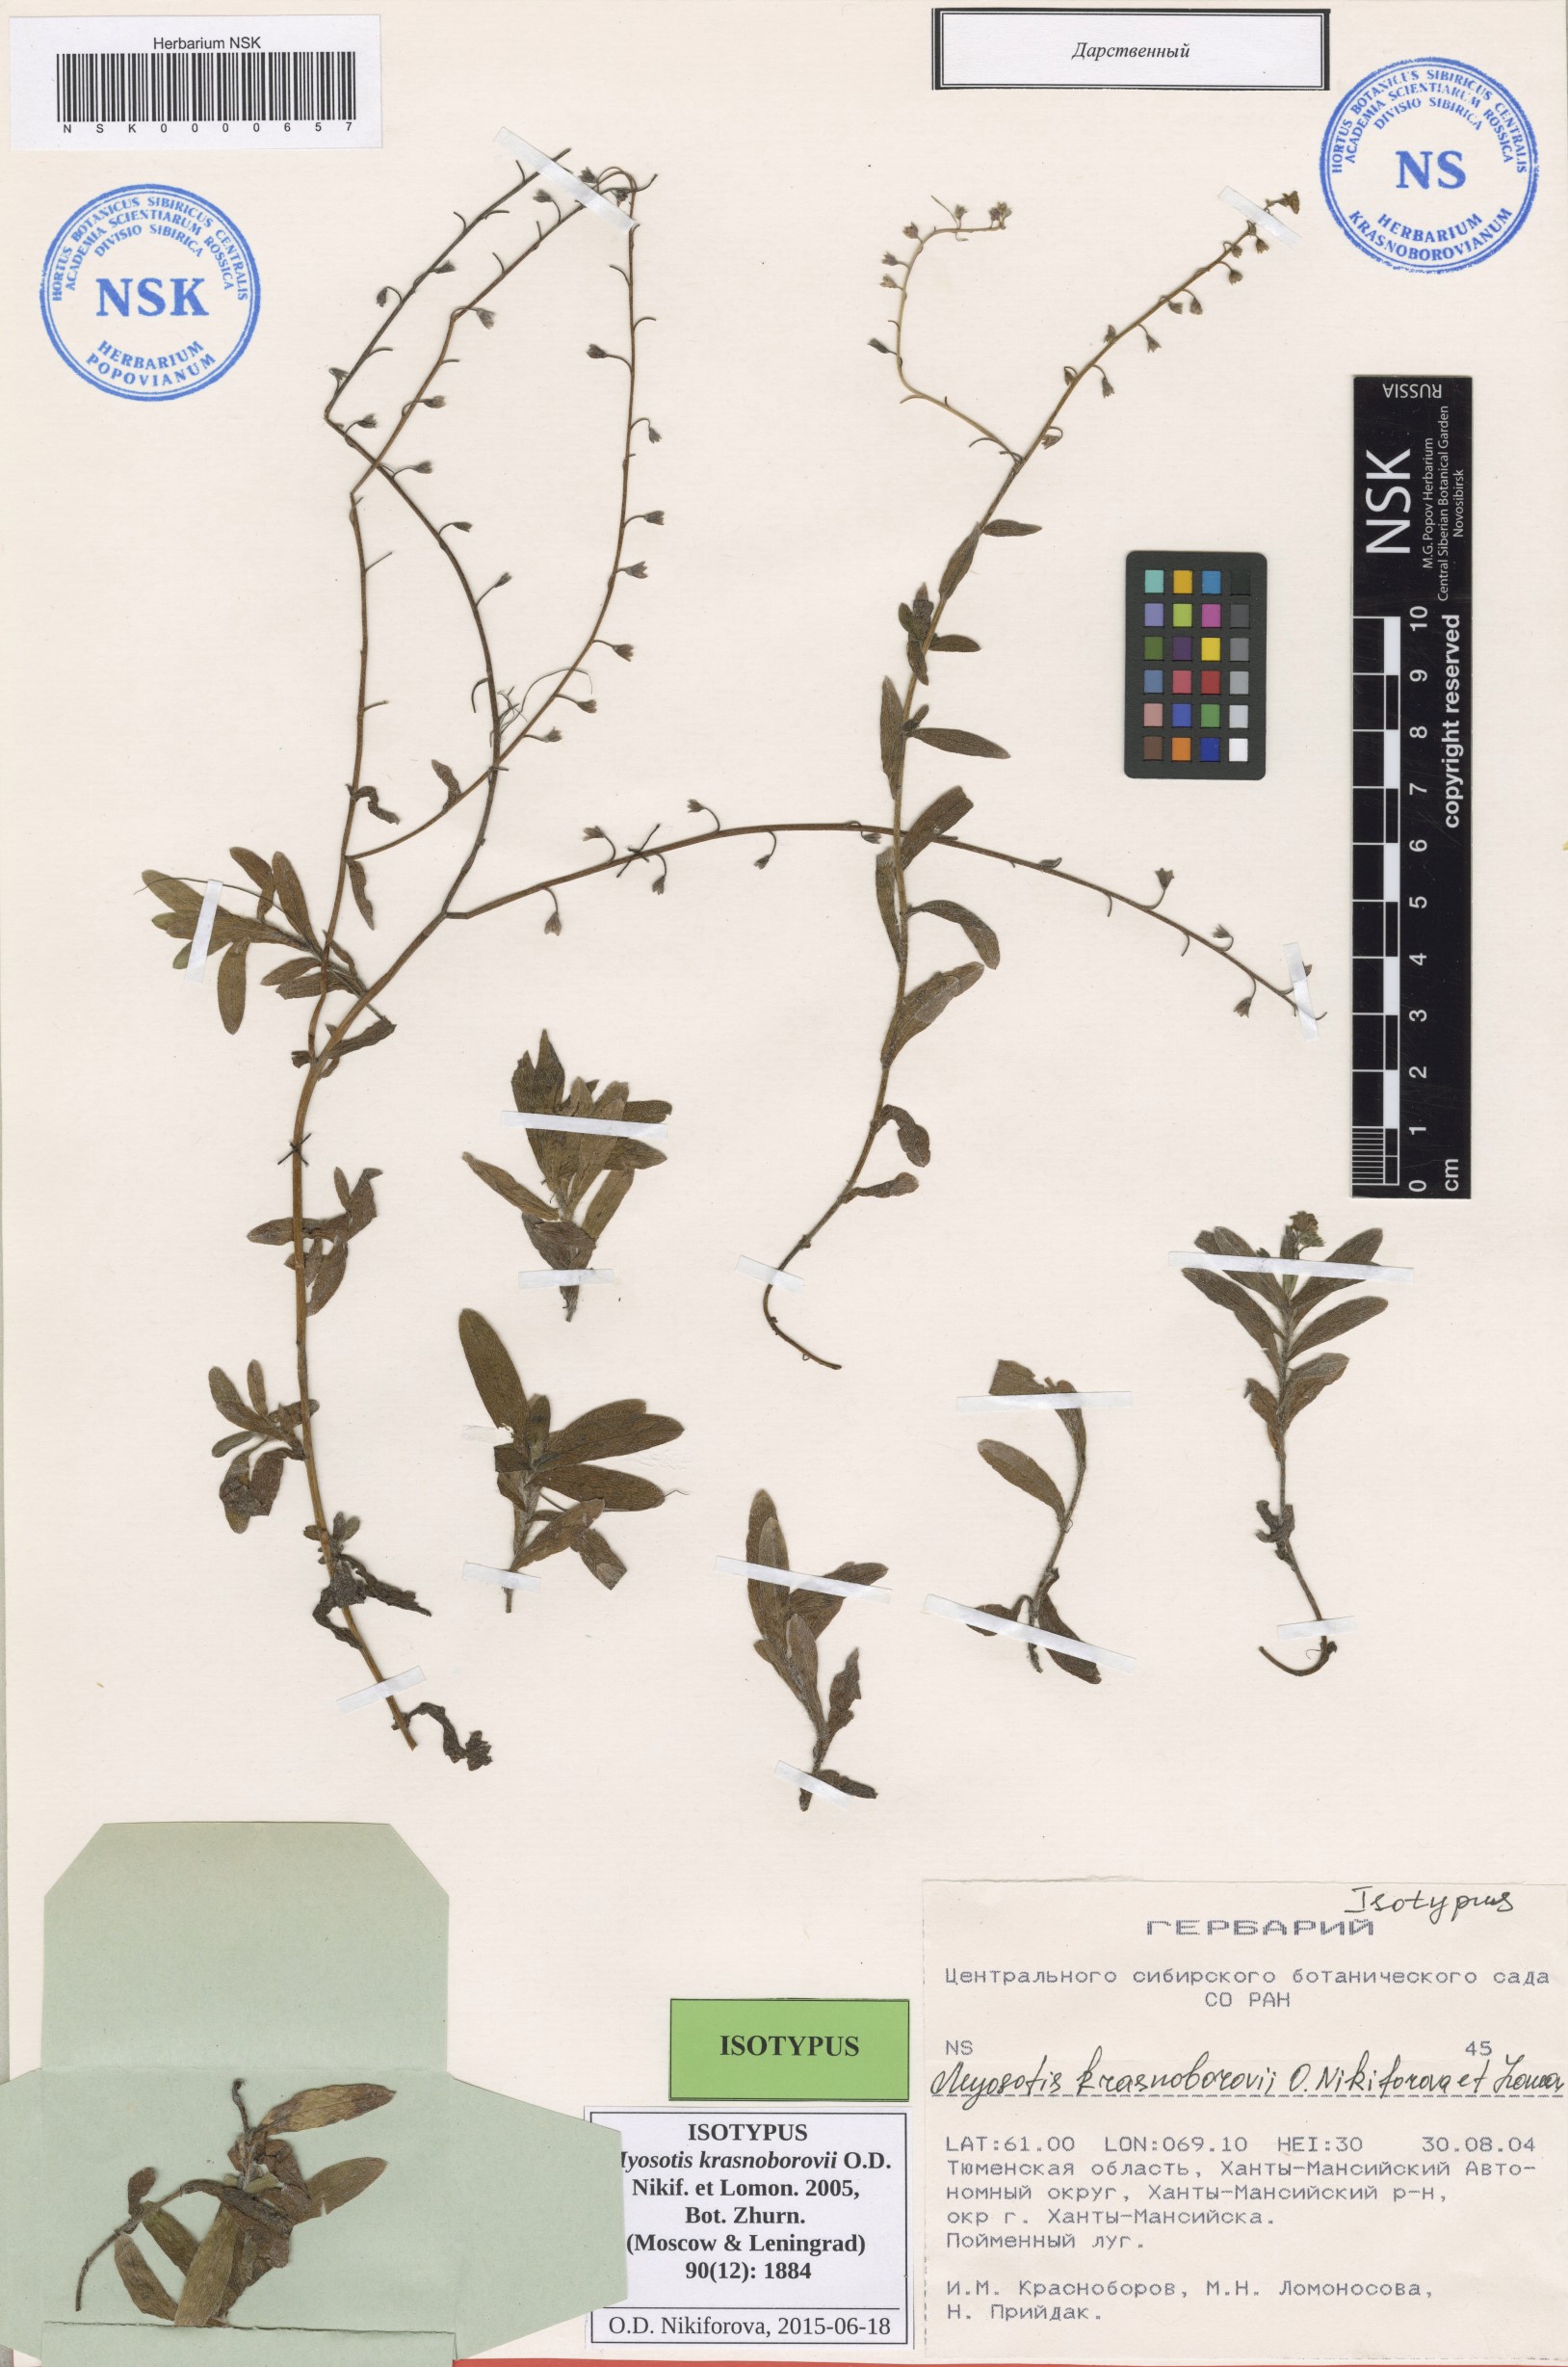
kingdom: Plantae
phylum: Tracheophyta
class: Magnoliopsida
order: Boraginales
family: Boraginaceae
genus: Myosotis
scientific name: Myosotis krasnoborovii
